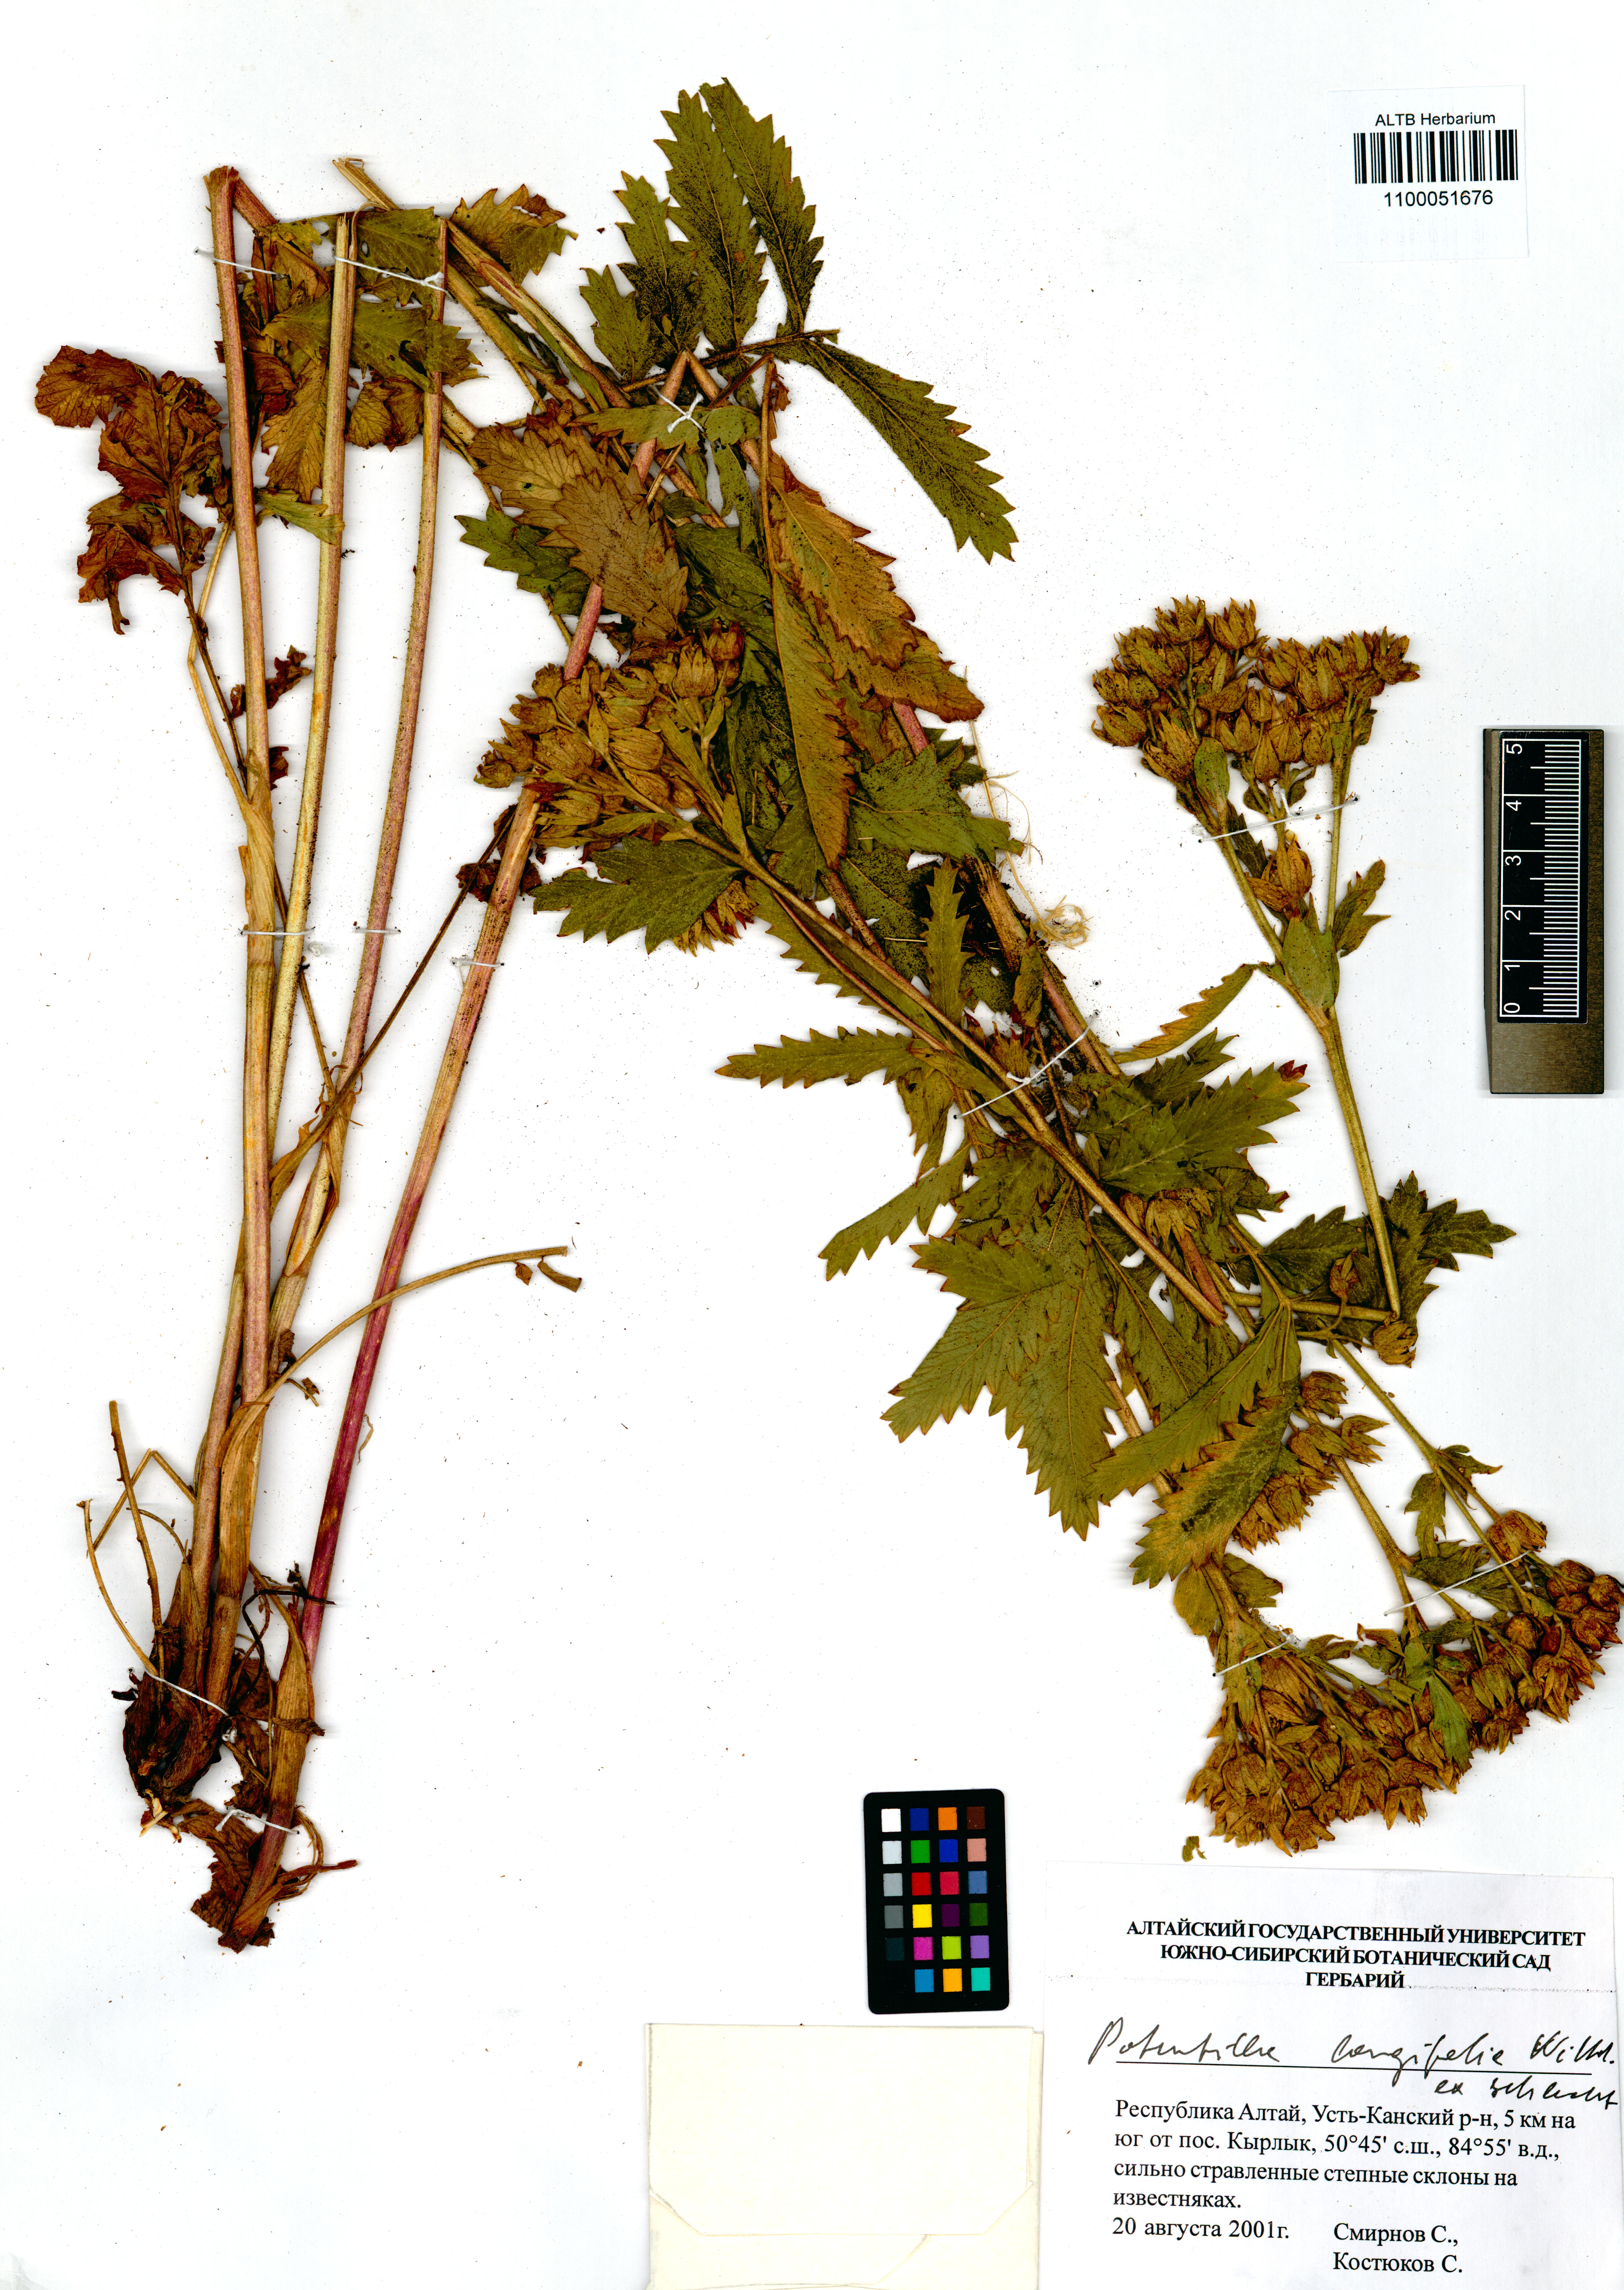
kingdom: Plantae
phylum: Tracheophyta
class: Magnoliopsida
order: Rosales
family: Rosaceae
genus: Potentilla
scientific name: Potentilla longifolia
